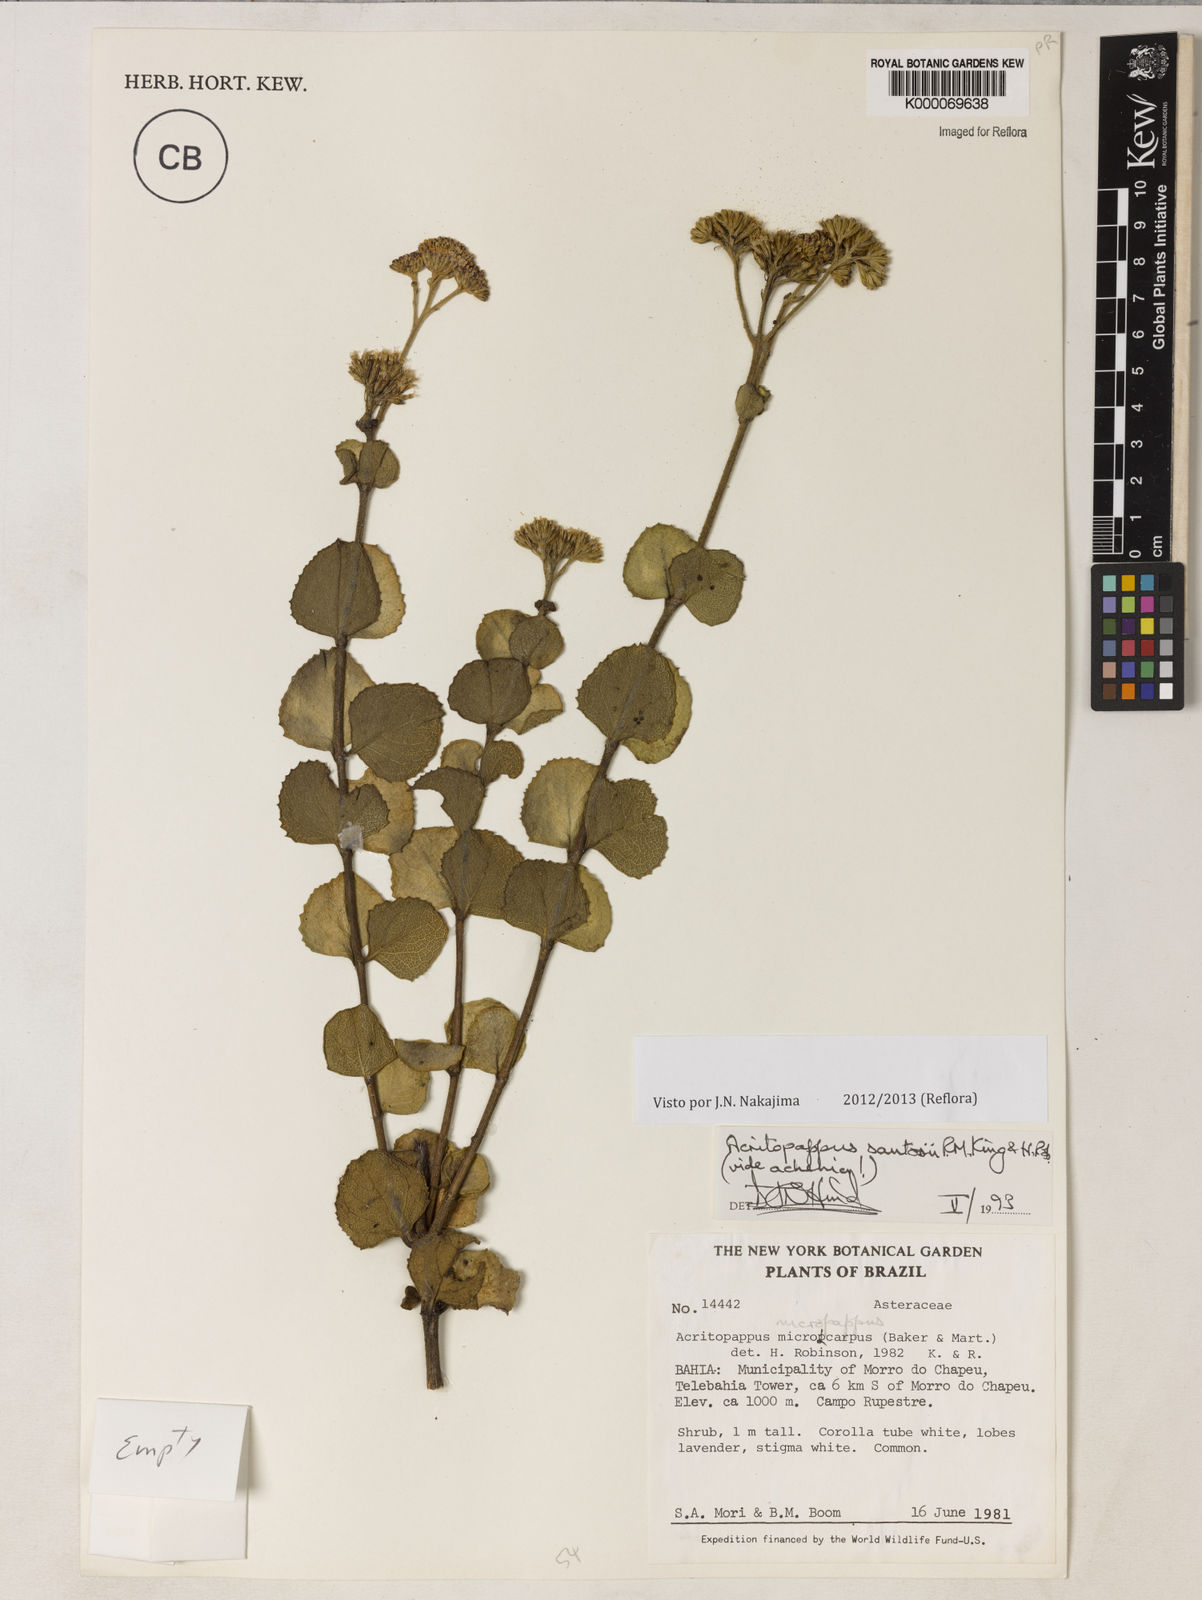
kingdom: Plantae
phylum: Tracheophyta
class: Magnoliopsida
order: Asterales
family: Asteraceae
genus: Acritopappus
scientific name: Acritopappus santosii
